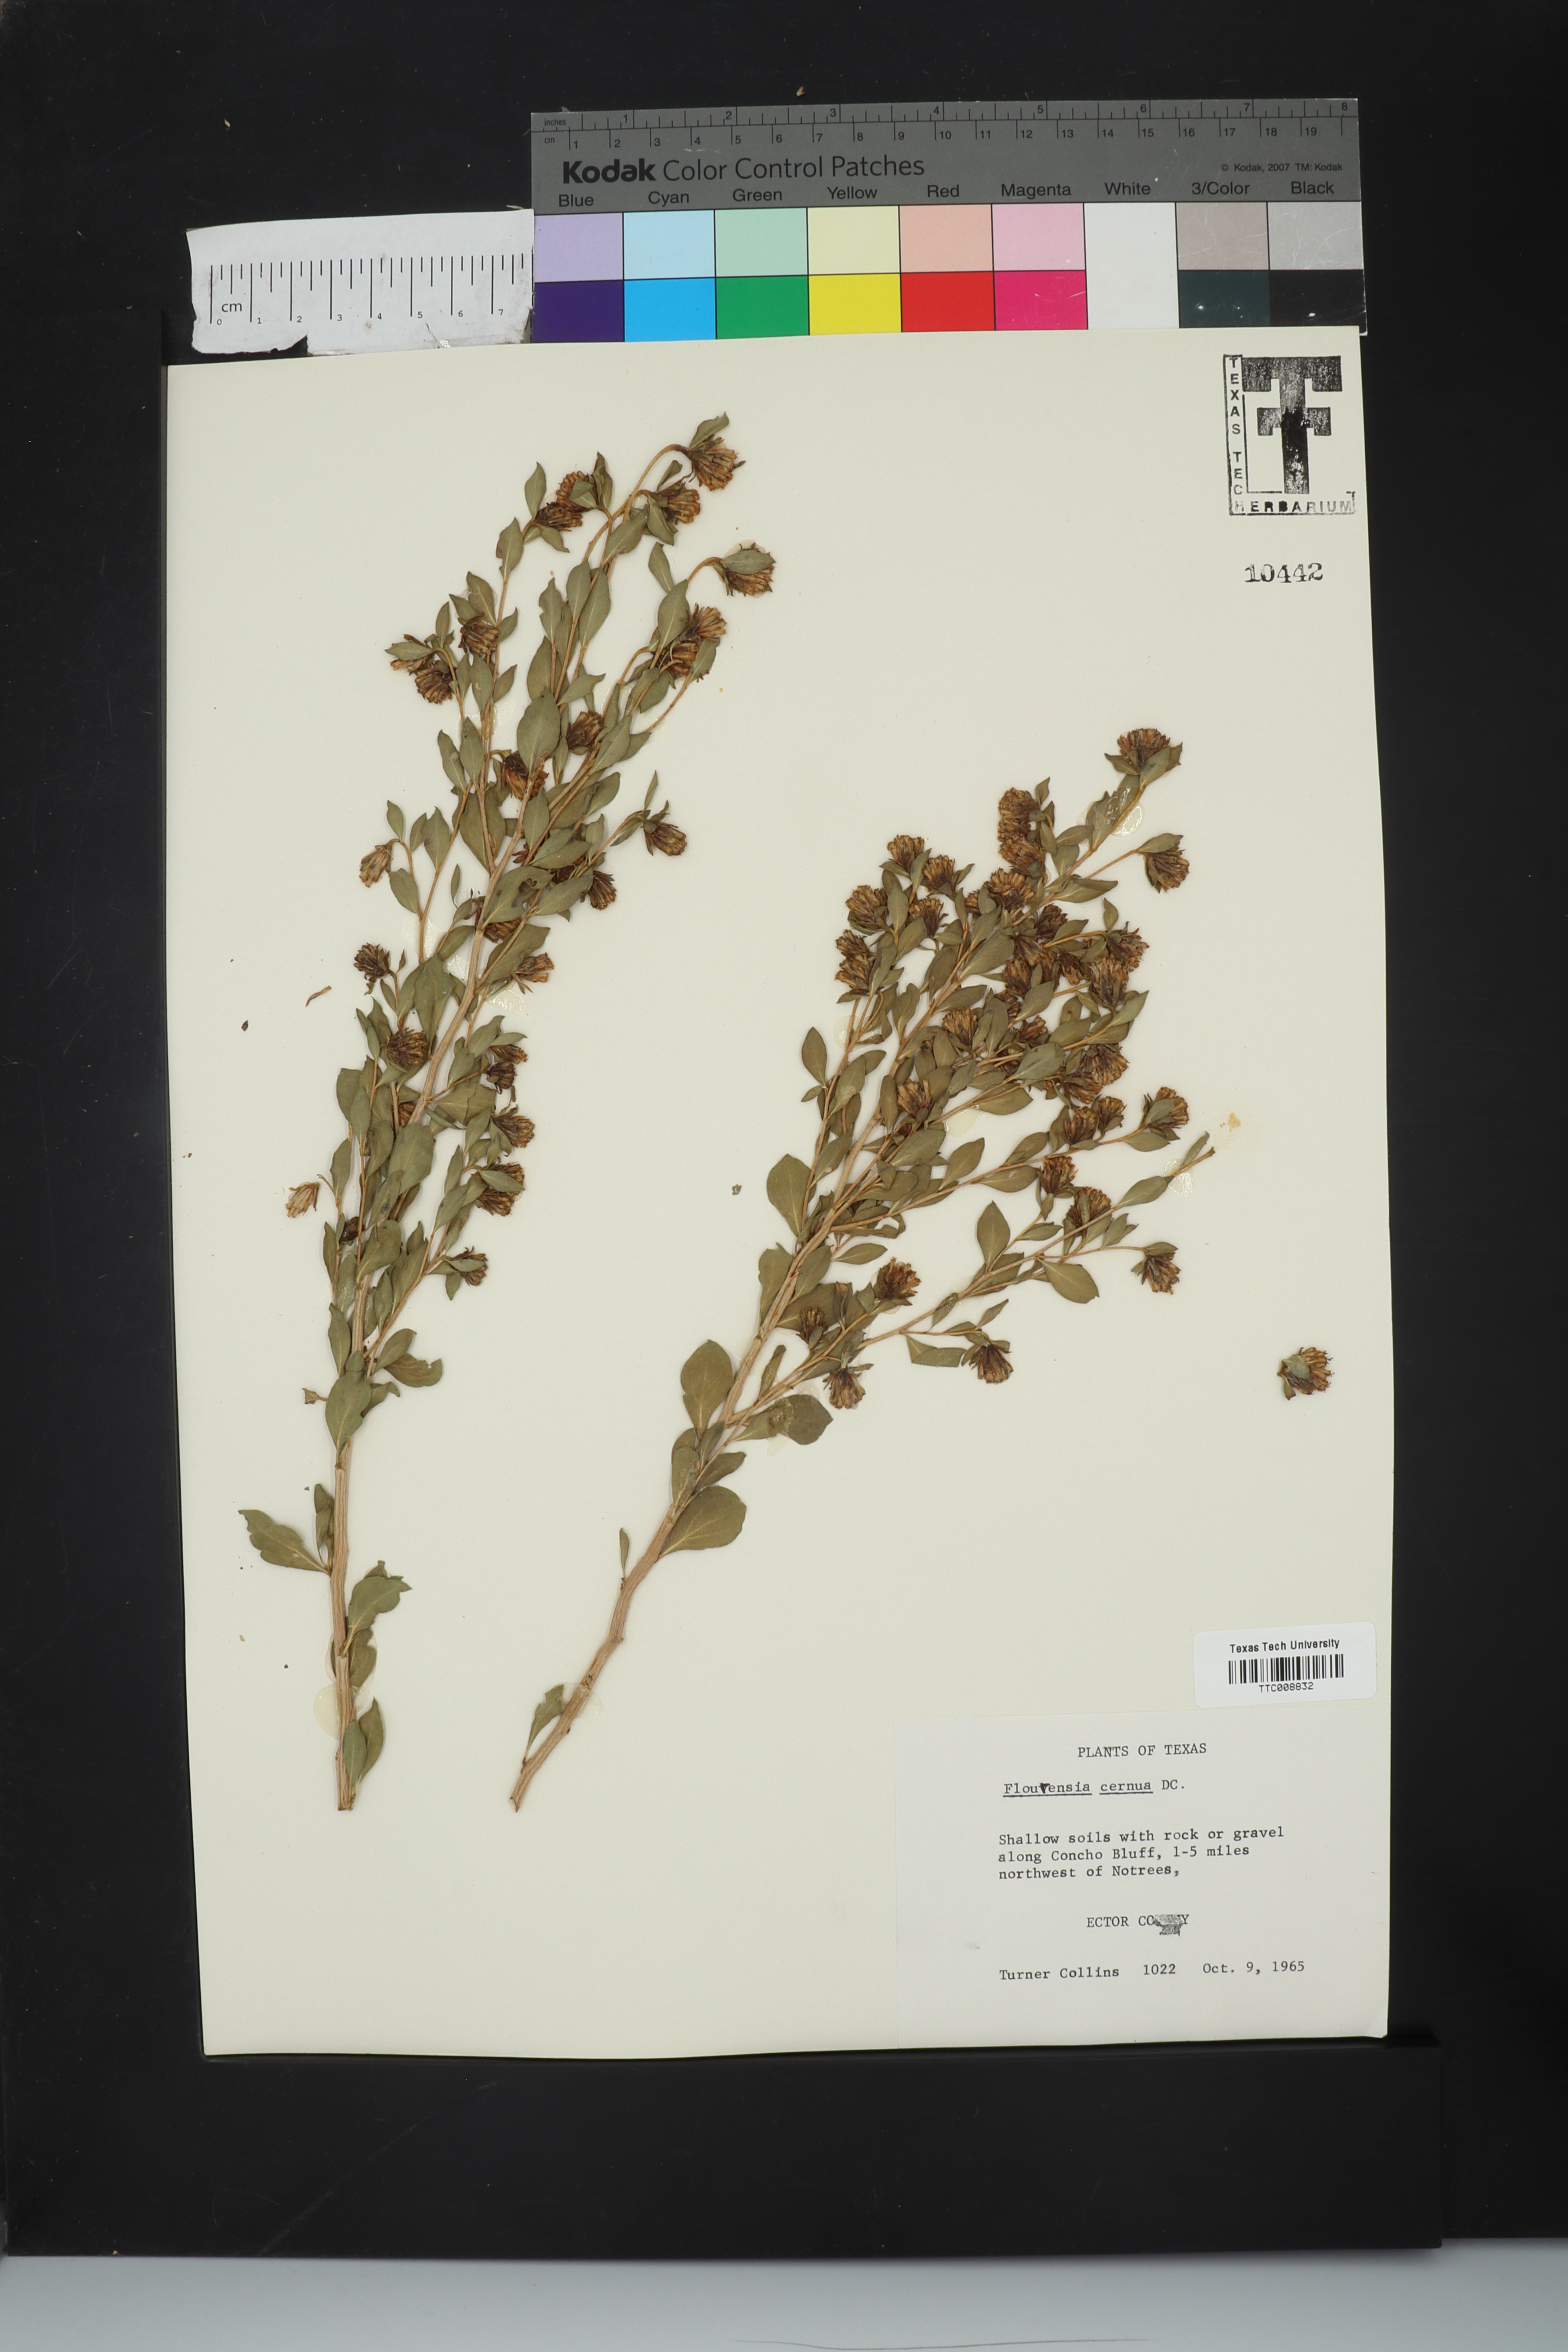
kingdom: Plantae
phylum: Tracheophyta
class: Magnoliopsida
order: Asterales
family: Asteraceae
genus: Flourensia
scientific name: Flourensia cernua
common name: Varnishbush
